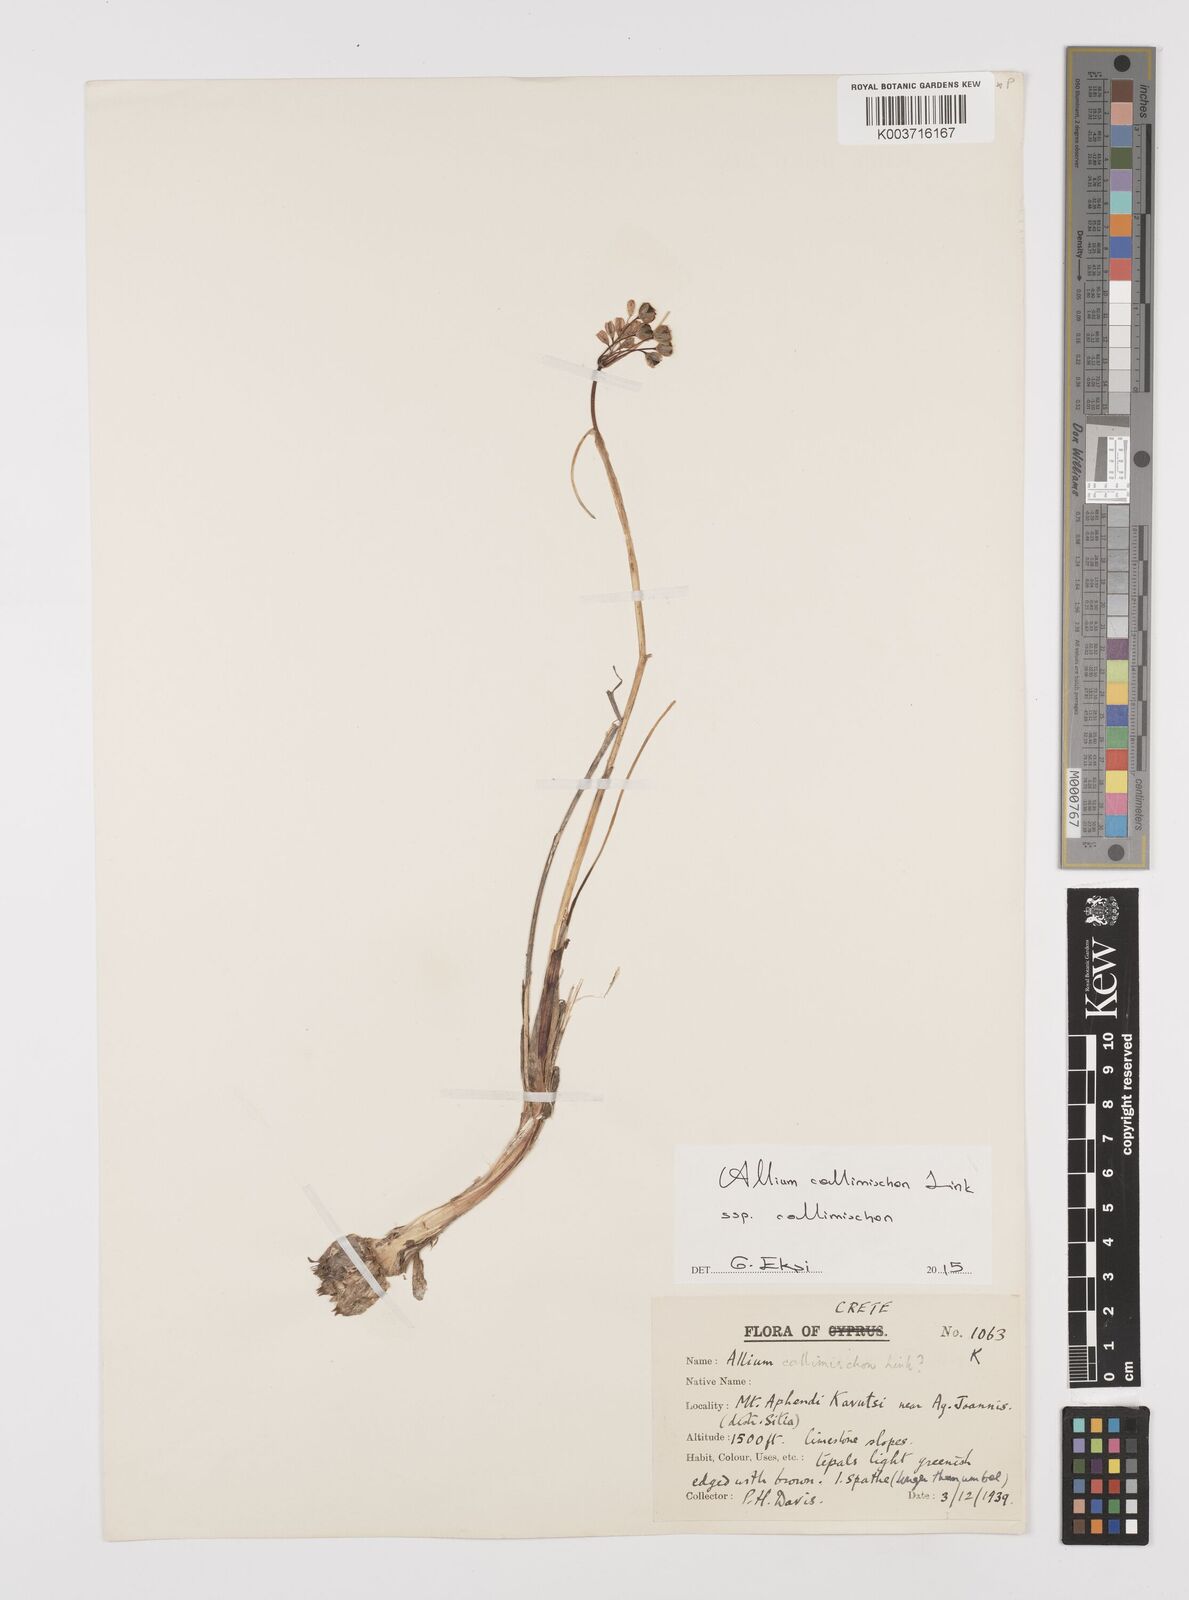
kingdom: Plantae
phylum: Tracheophyta
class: Liliopsida
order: Asparagales
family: Amaryllidaceae
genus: Allium
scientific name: Allium callimischon
